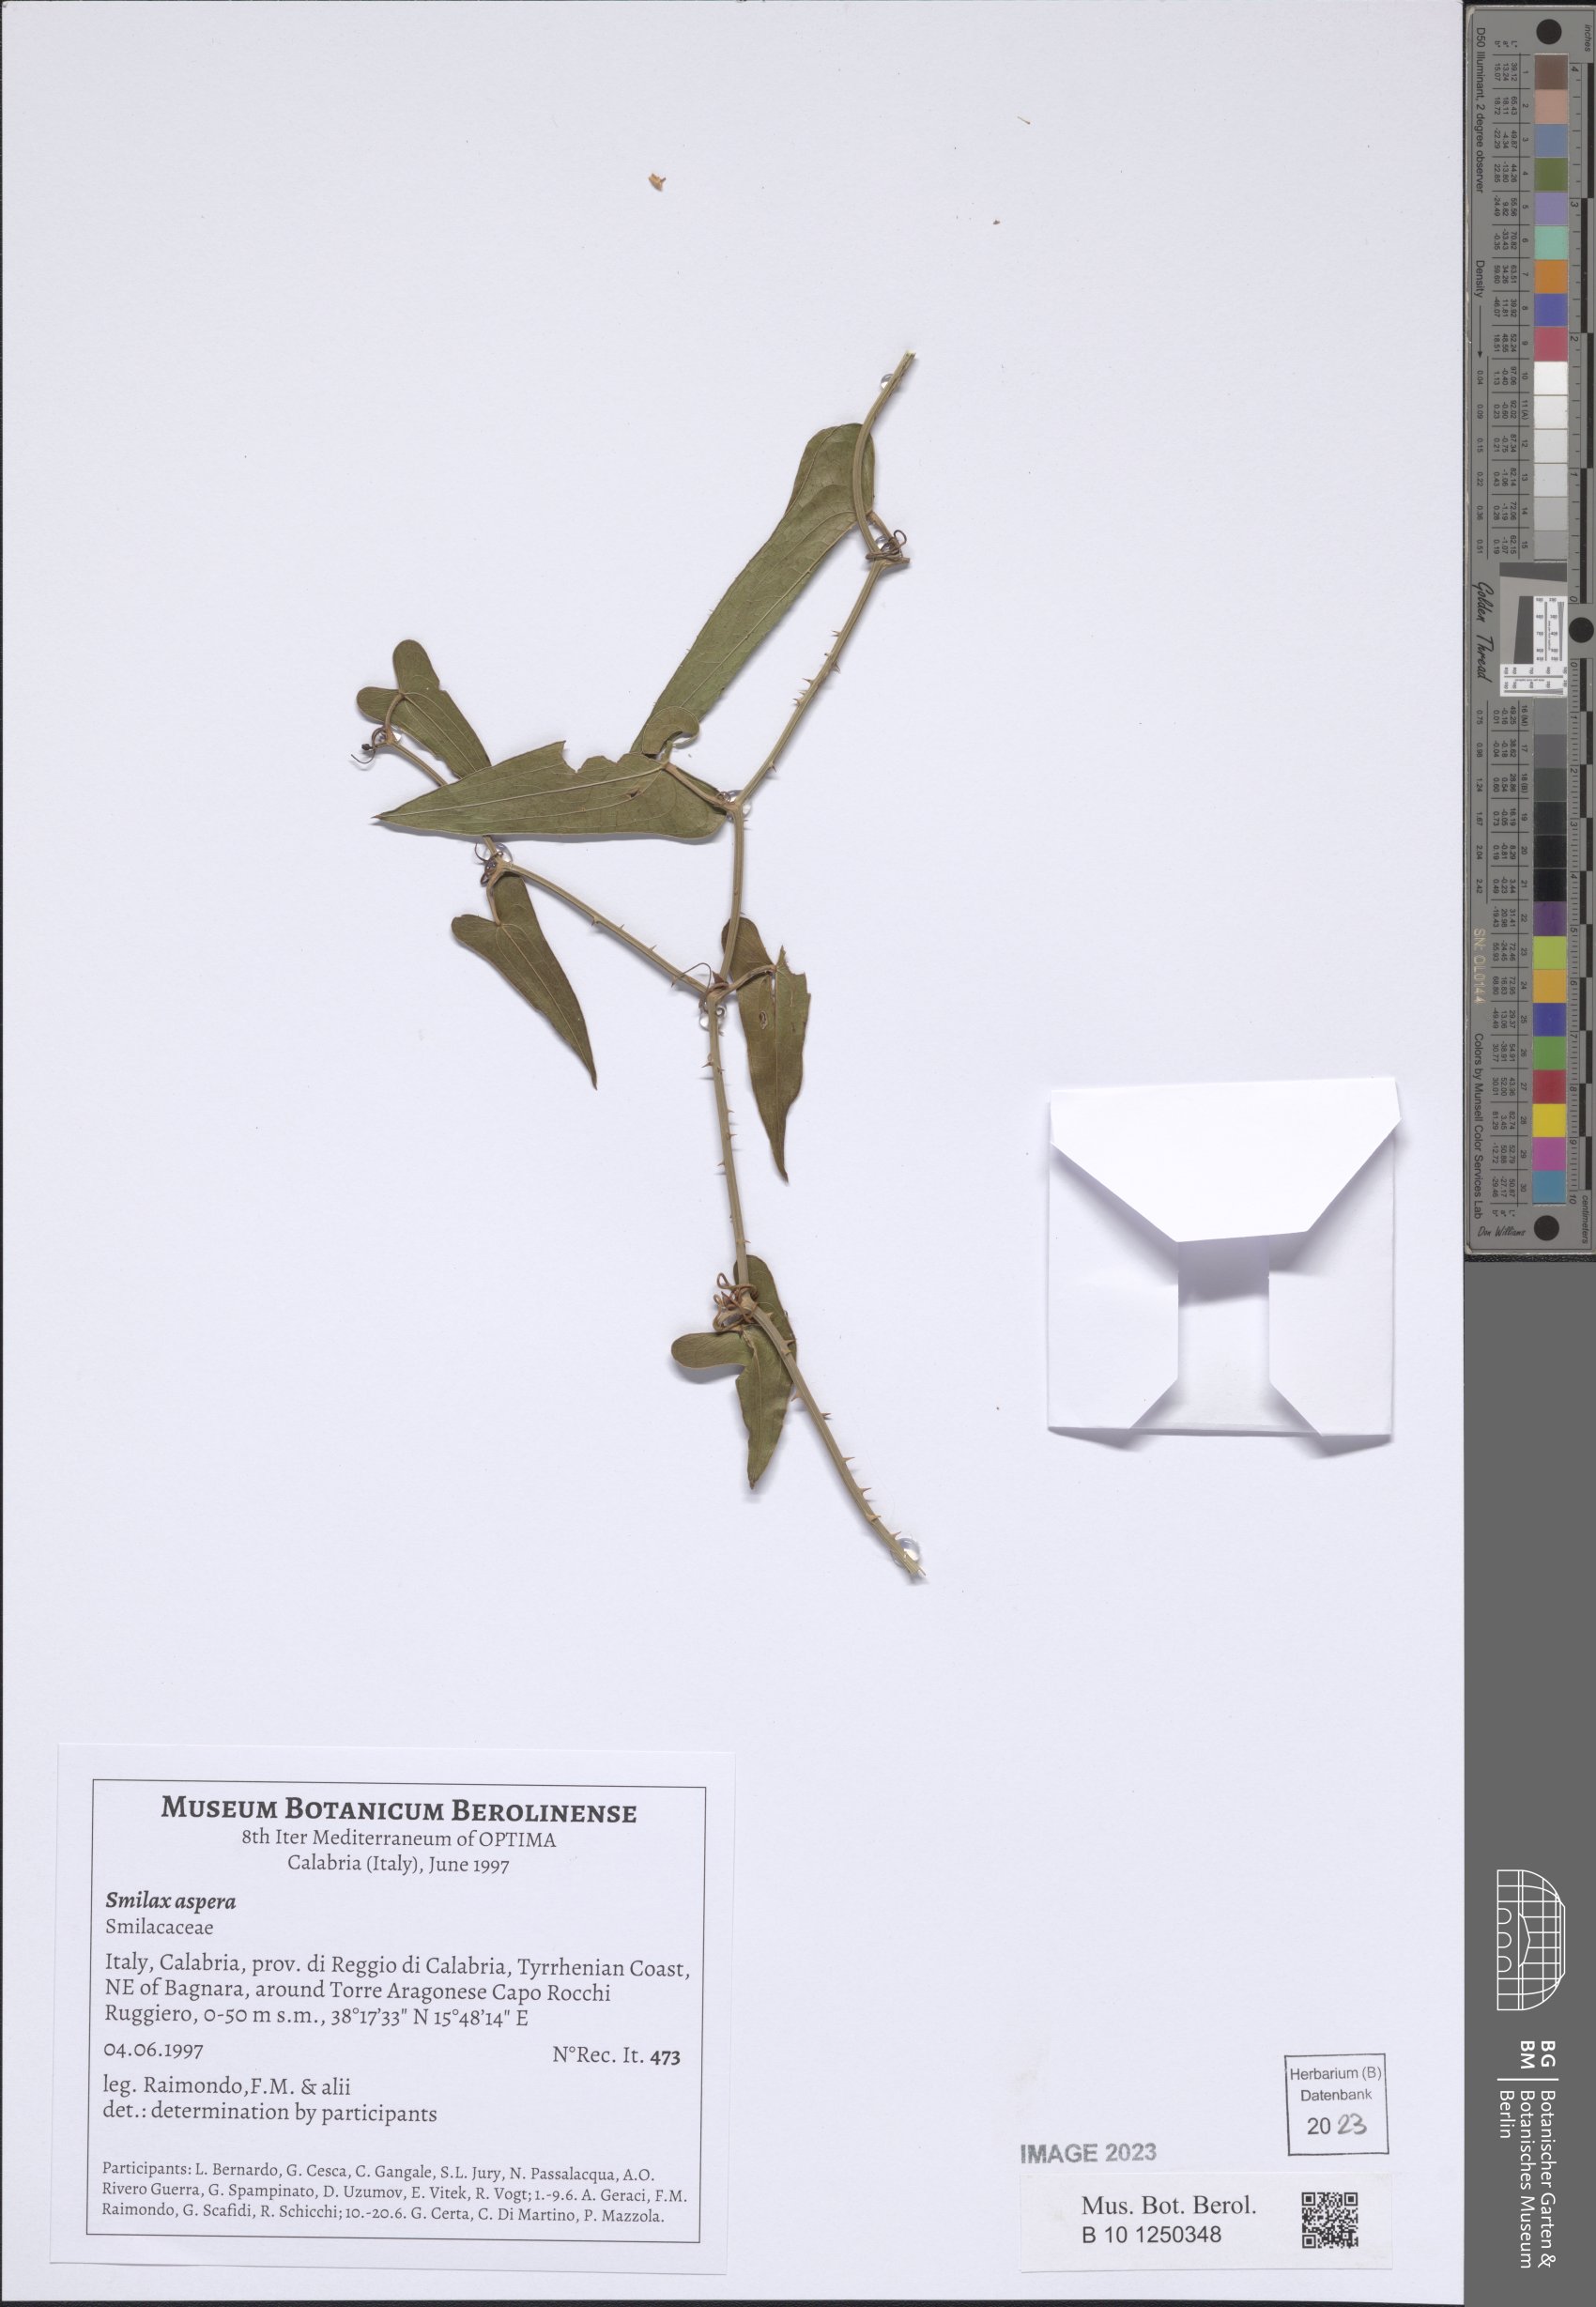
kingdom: Plantae
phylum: Tracheophyta
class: Liliopsida
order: Liliales
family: Smilacaceae
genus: Smilax
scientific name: Smilax aspera
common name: Common smilax
